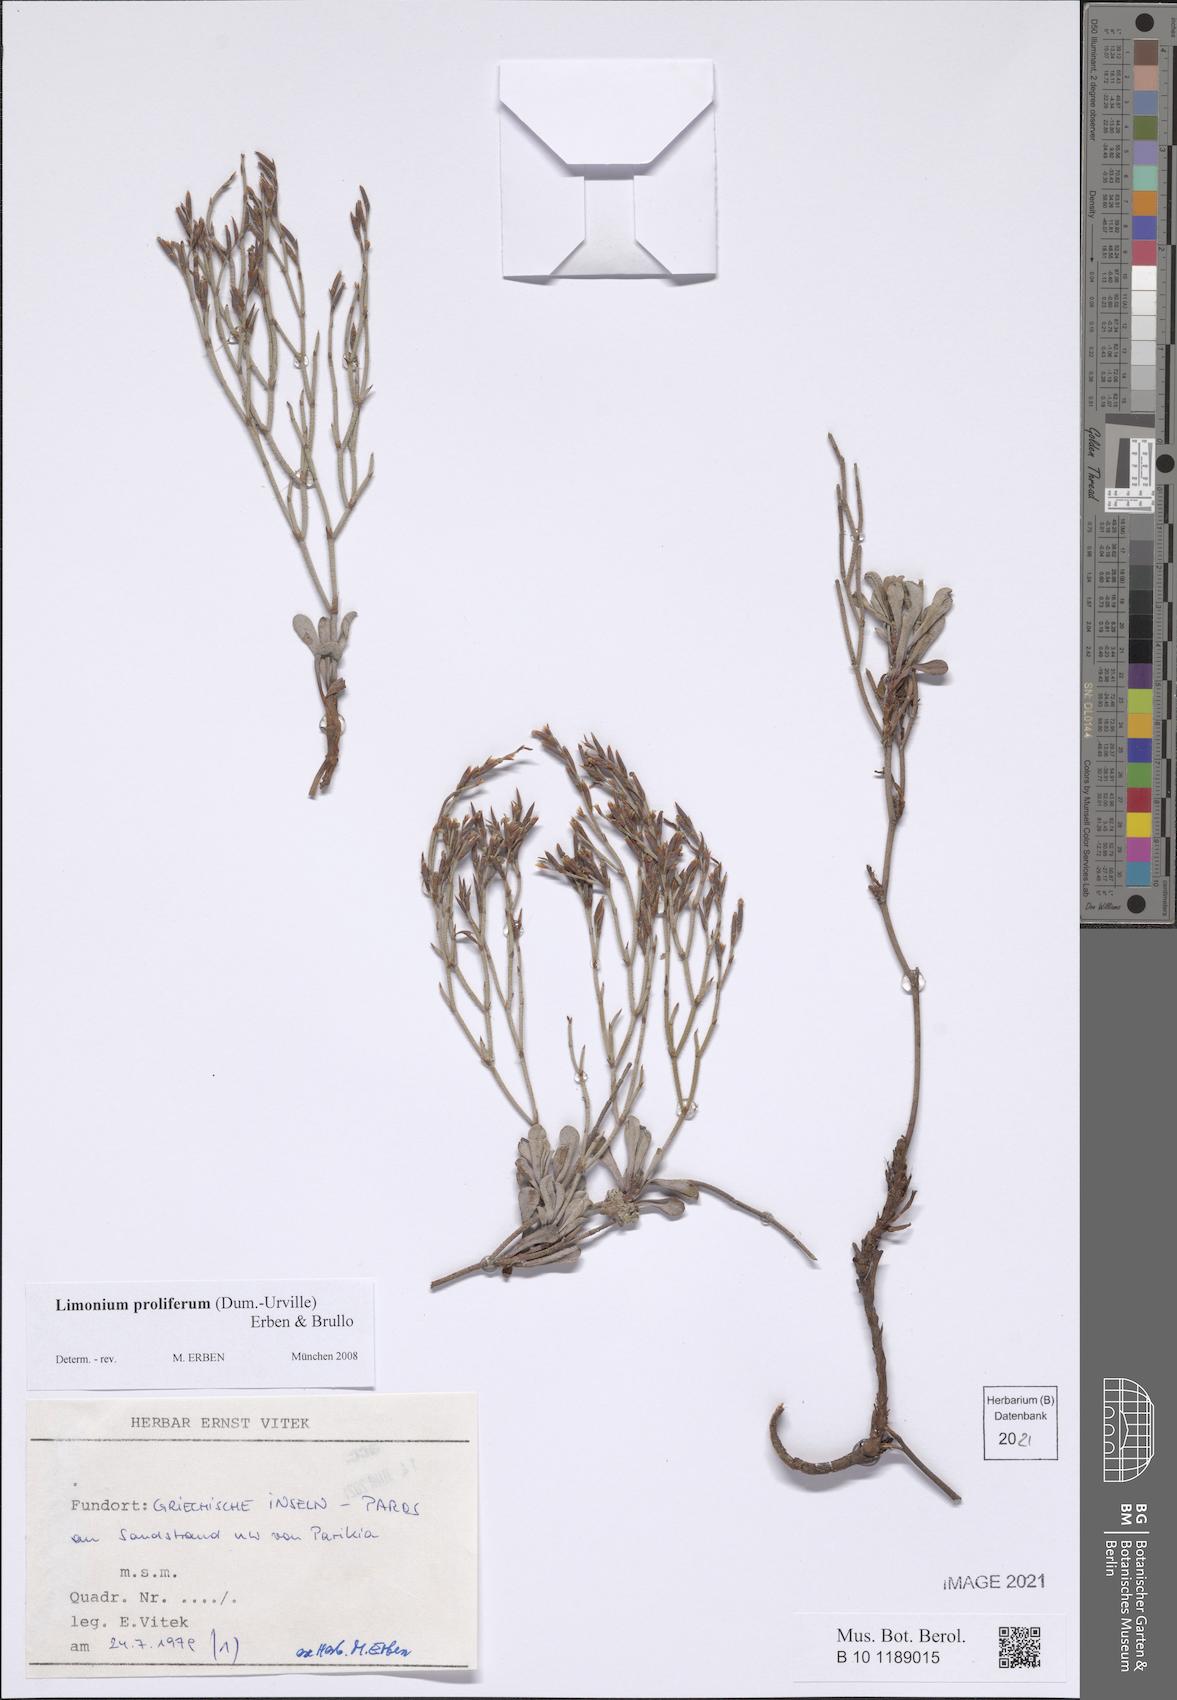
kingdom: Plantae
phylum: Tracheophyta
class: Magnoliopsida
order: Caryophyllales
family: Plumbaginaceae
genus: Limonium
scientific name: Limonium proliferum
